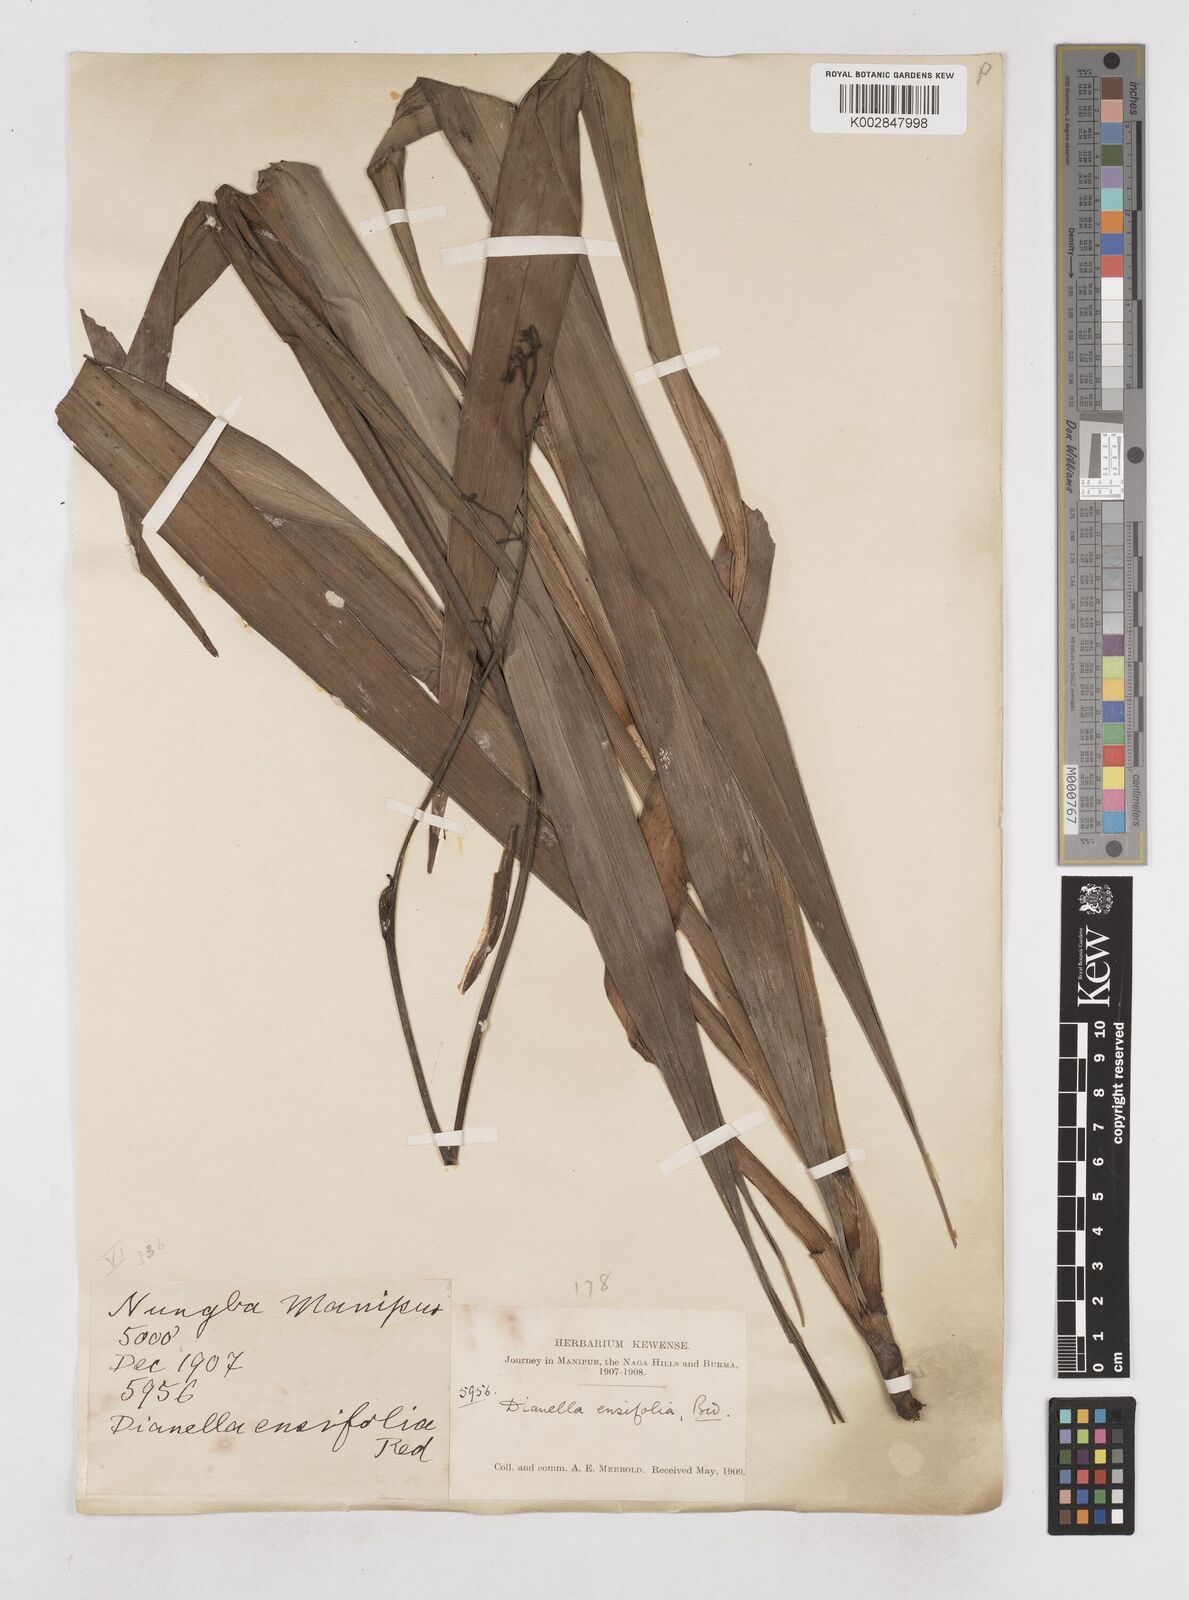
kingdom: Plantae
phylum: Tracheophyta
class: Liliopsida
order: Asparagales
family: Asphodelaceae
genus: Dianella
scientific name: Dianella ensifolia
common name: New zealand lilyplant
